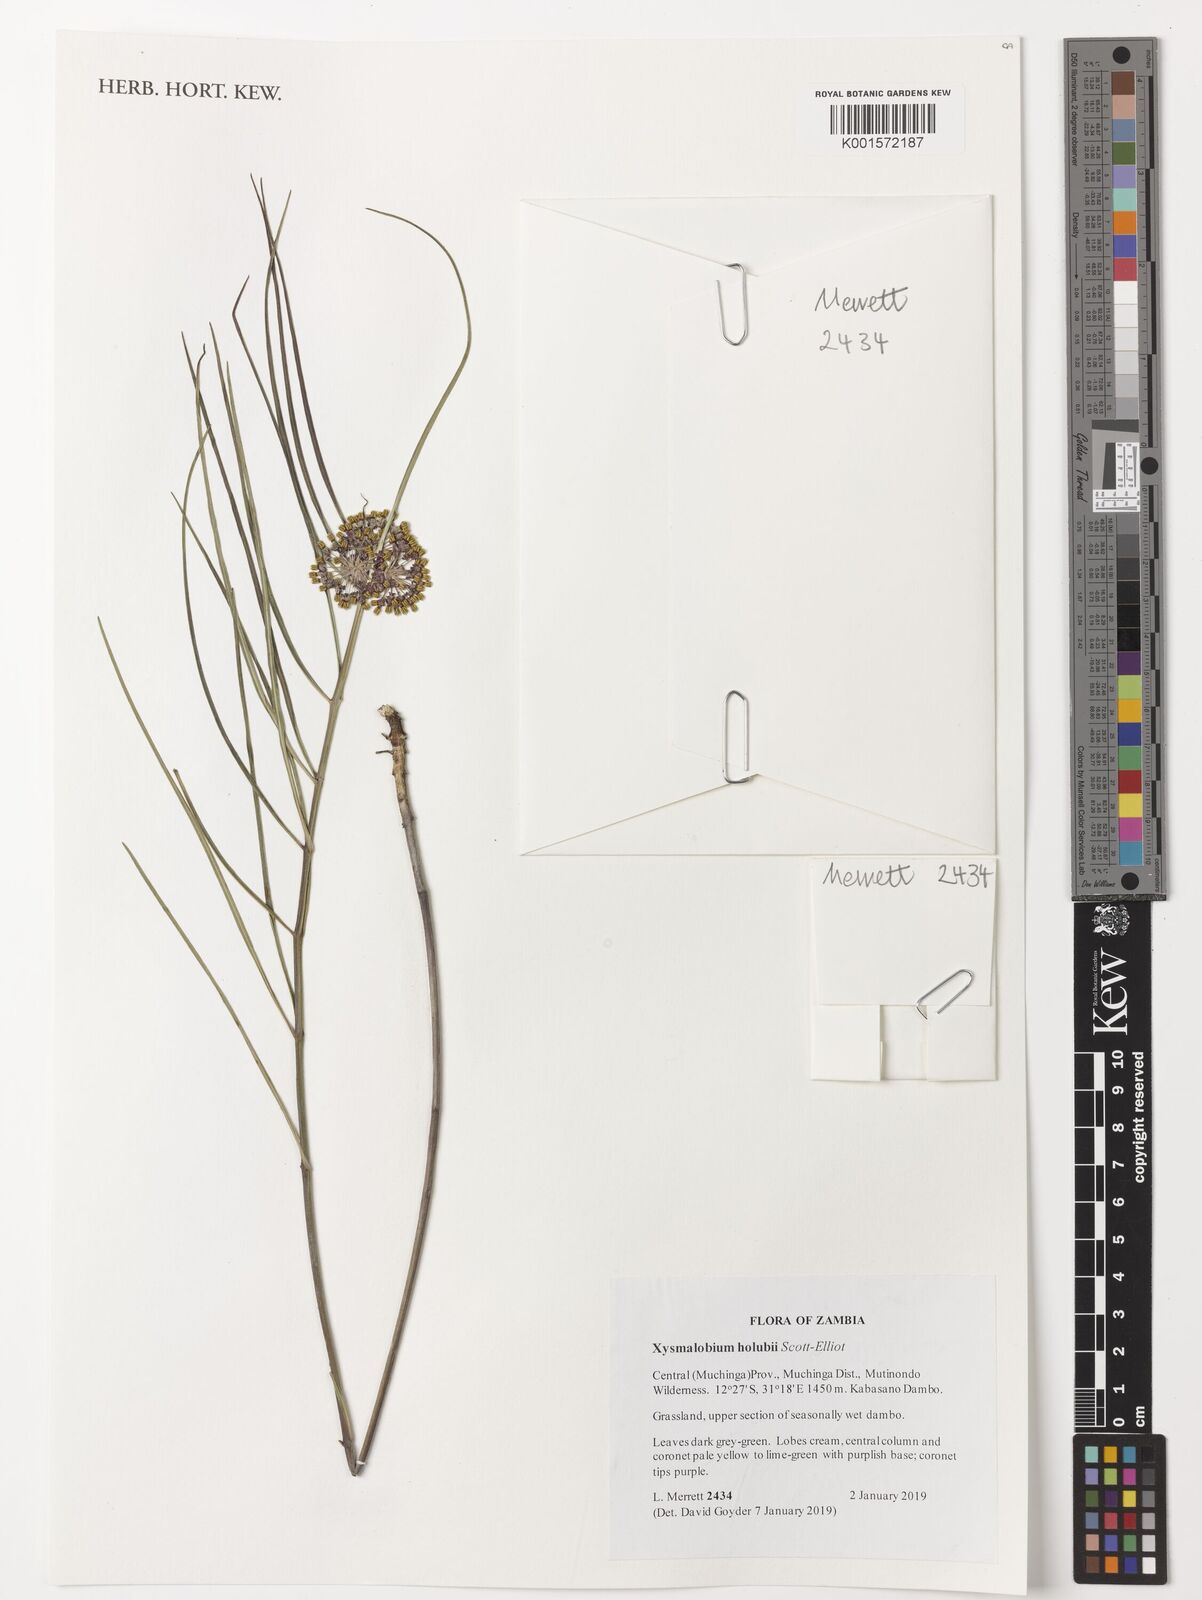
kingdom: Plantae
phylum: Tracheophyta
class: Magnoliopsida
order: Gentianales
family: Apocynaceae
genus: Xysmalobium
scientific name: Xysmalobium holubii
